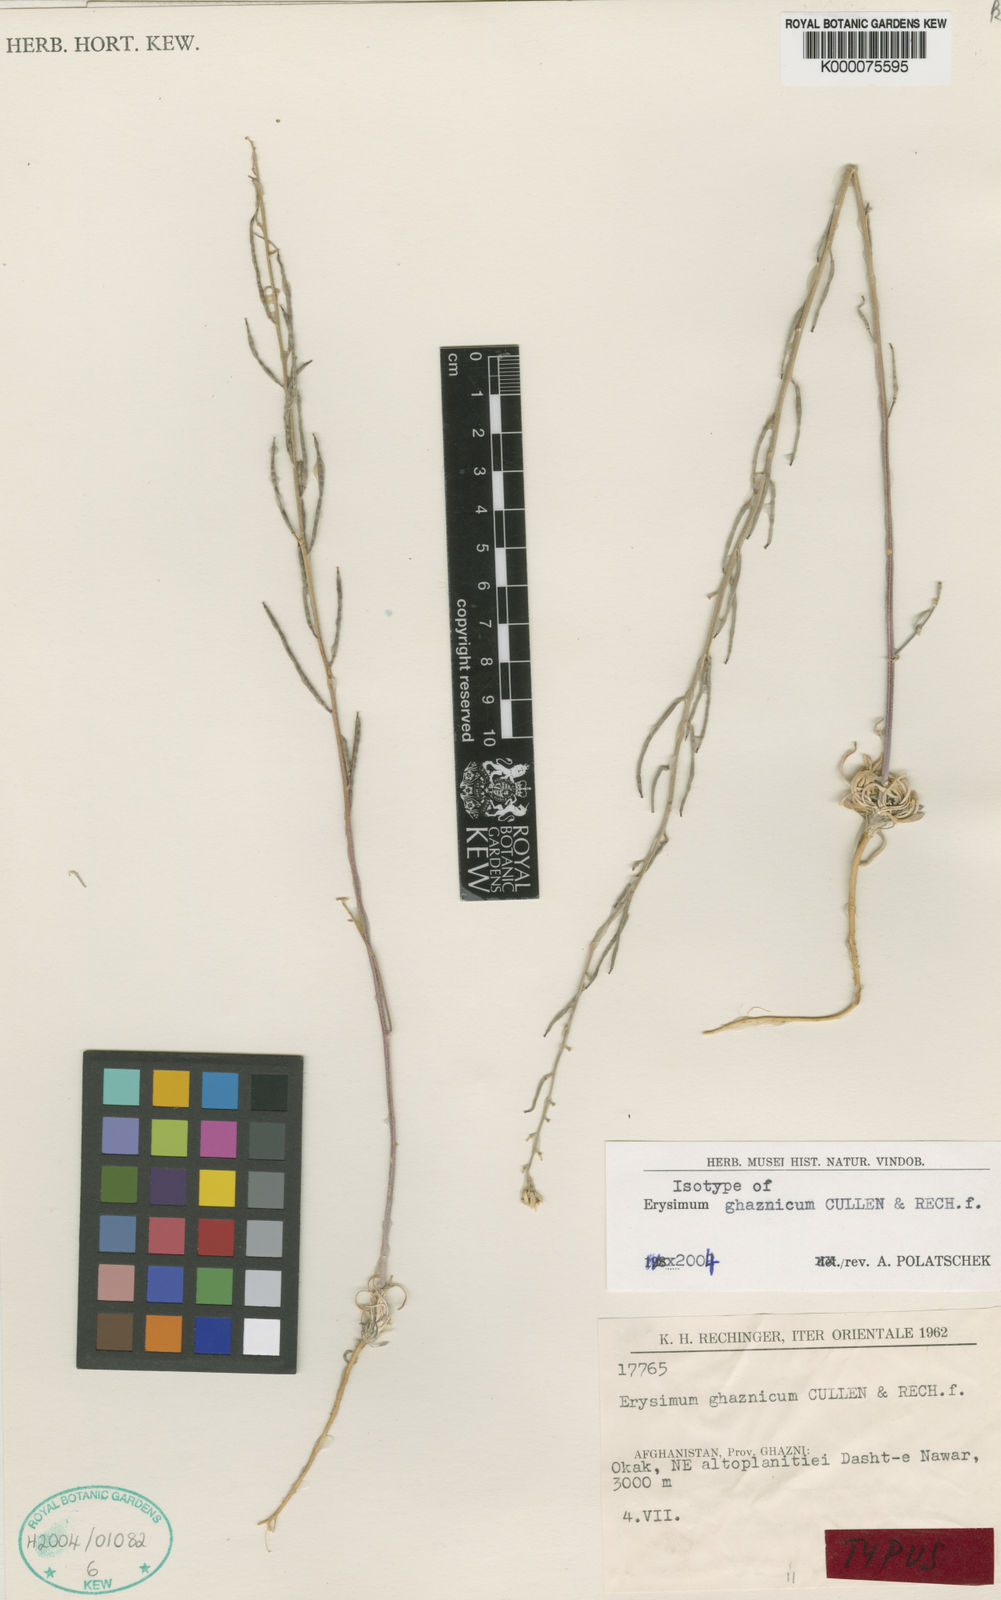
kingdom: Plantae
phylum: Tracheophyta
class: Magnoliopsida
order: Brassicales
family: Brassicaceae
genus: Erysimum
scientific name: Erysimum ghaznicum
